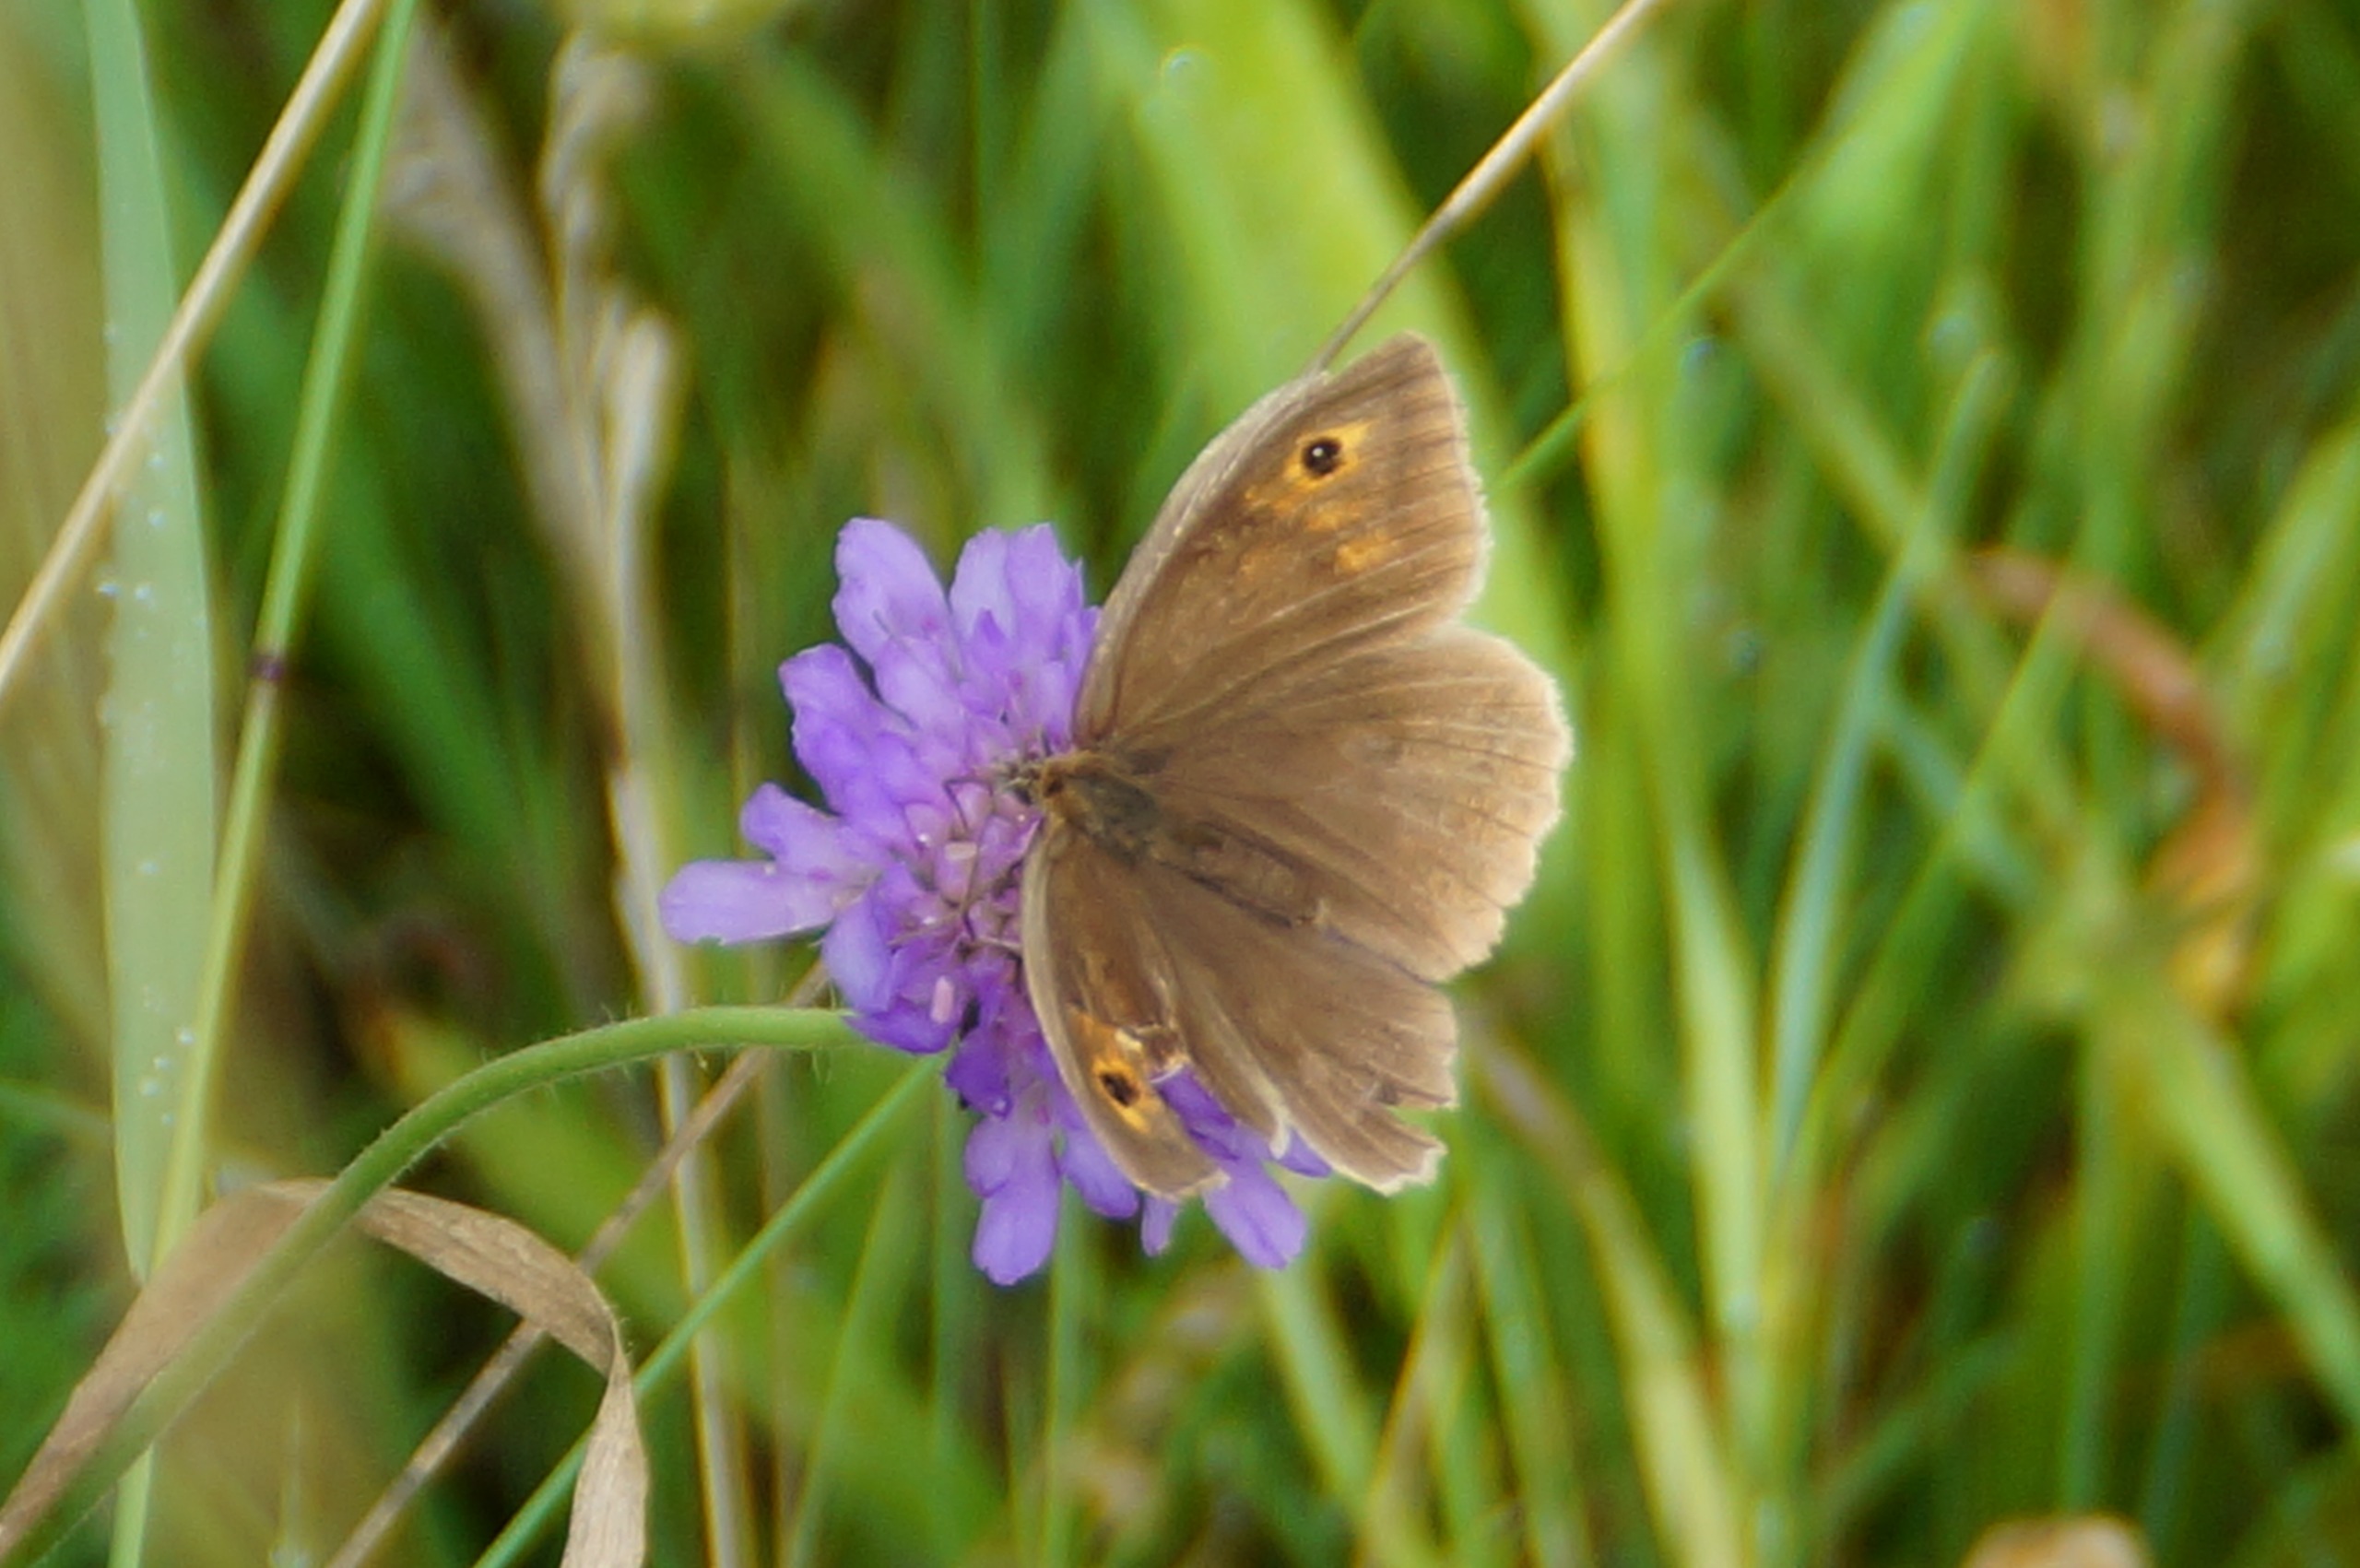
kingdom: Animalia
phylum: Arthropoda
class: Insecta
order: Lepidoptera
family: Nymphalidae
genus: Maniola
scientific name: Maniola jurtina
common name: Græsrandøje
